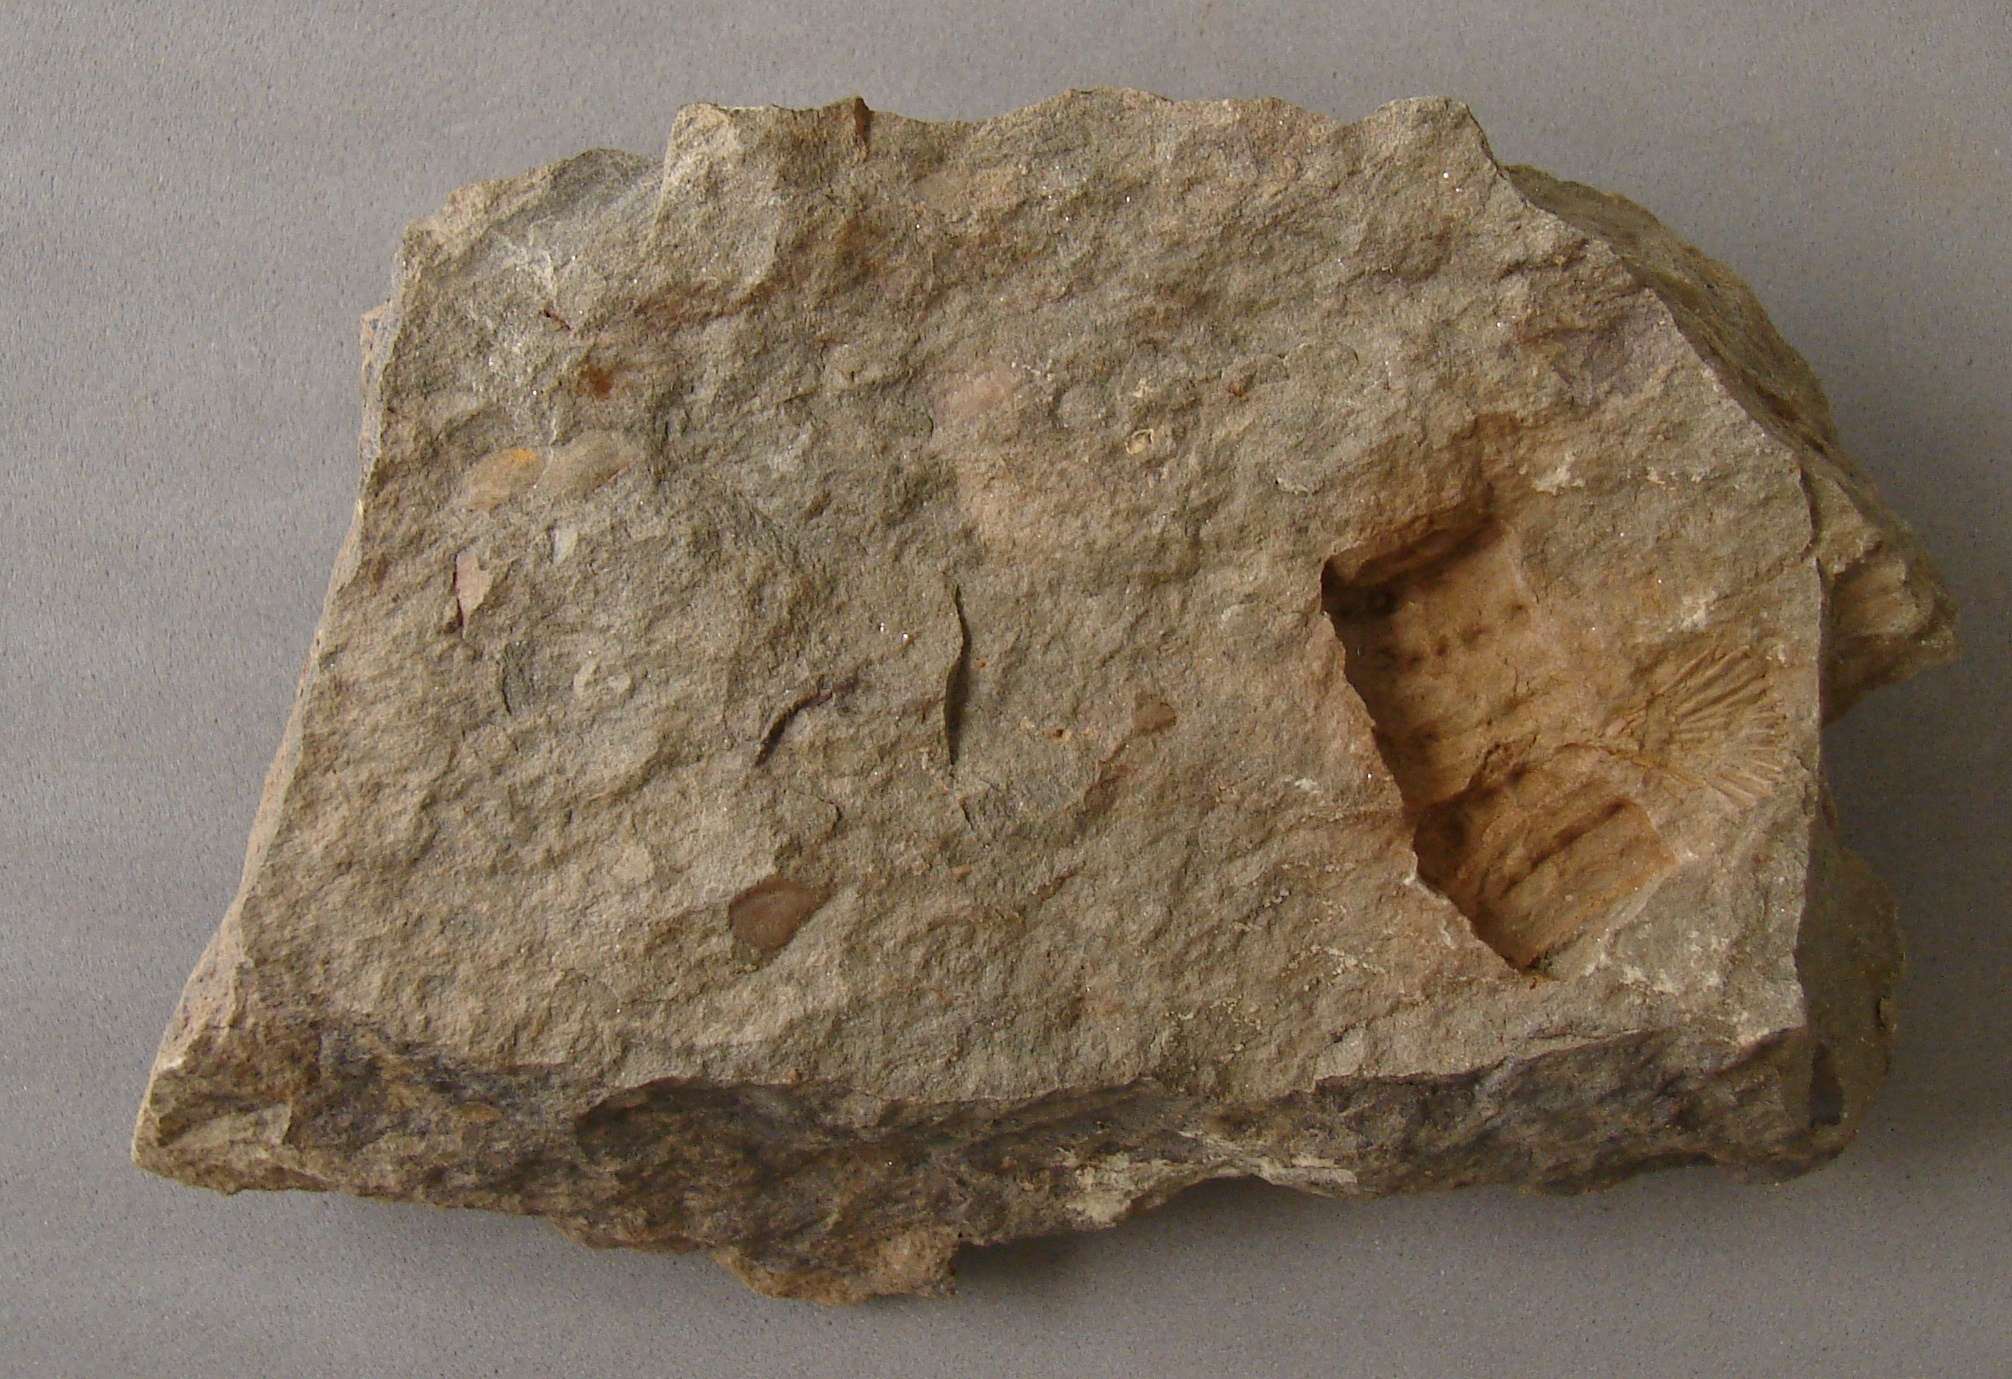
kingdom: Animalia
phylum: Echinodermata
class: Crinoidea
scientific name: Crinoidea
